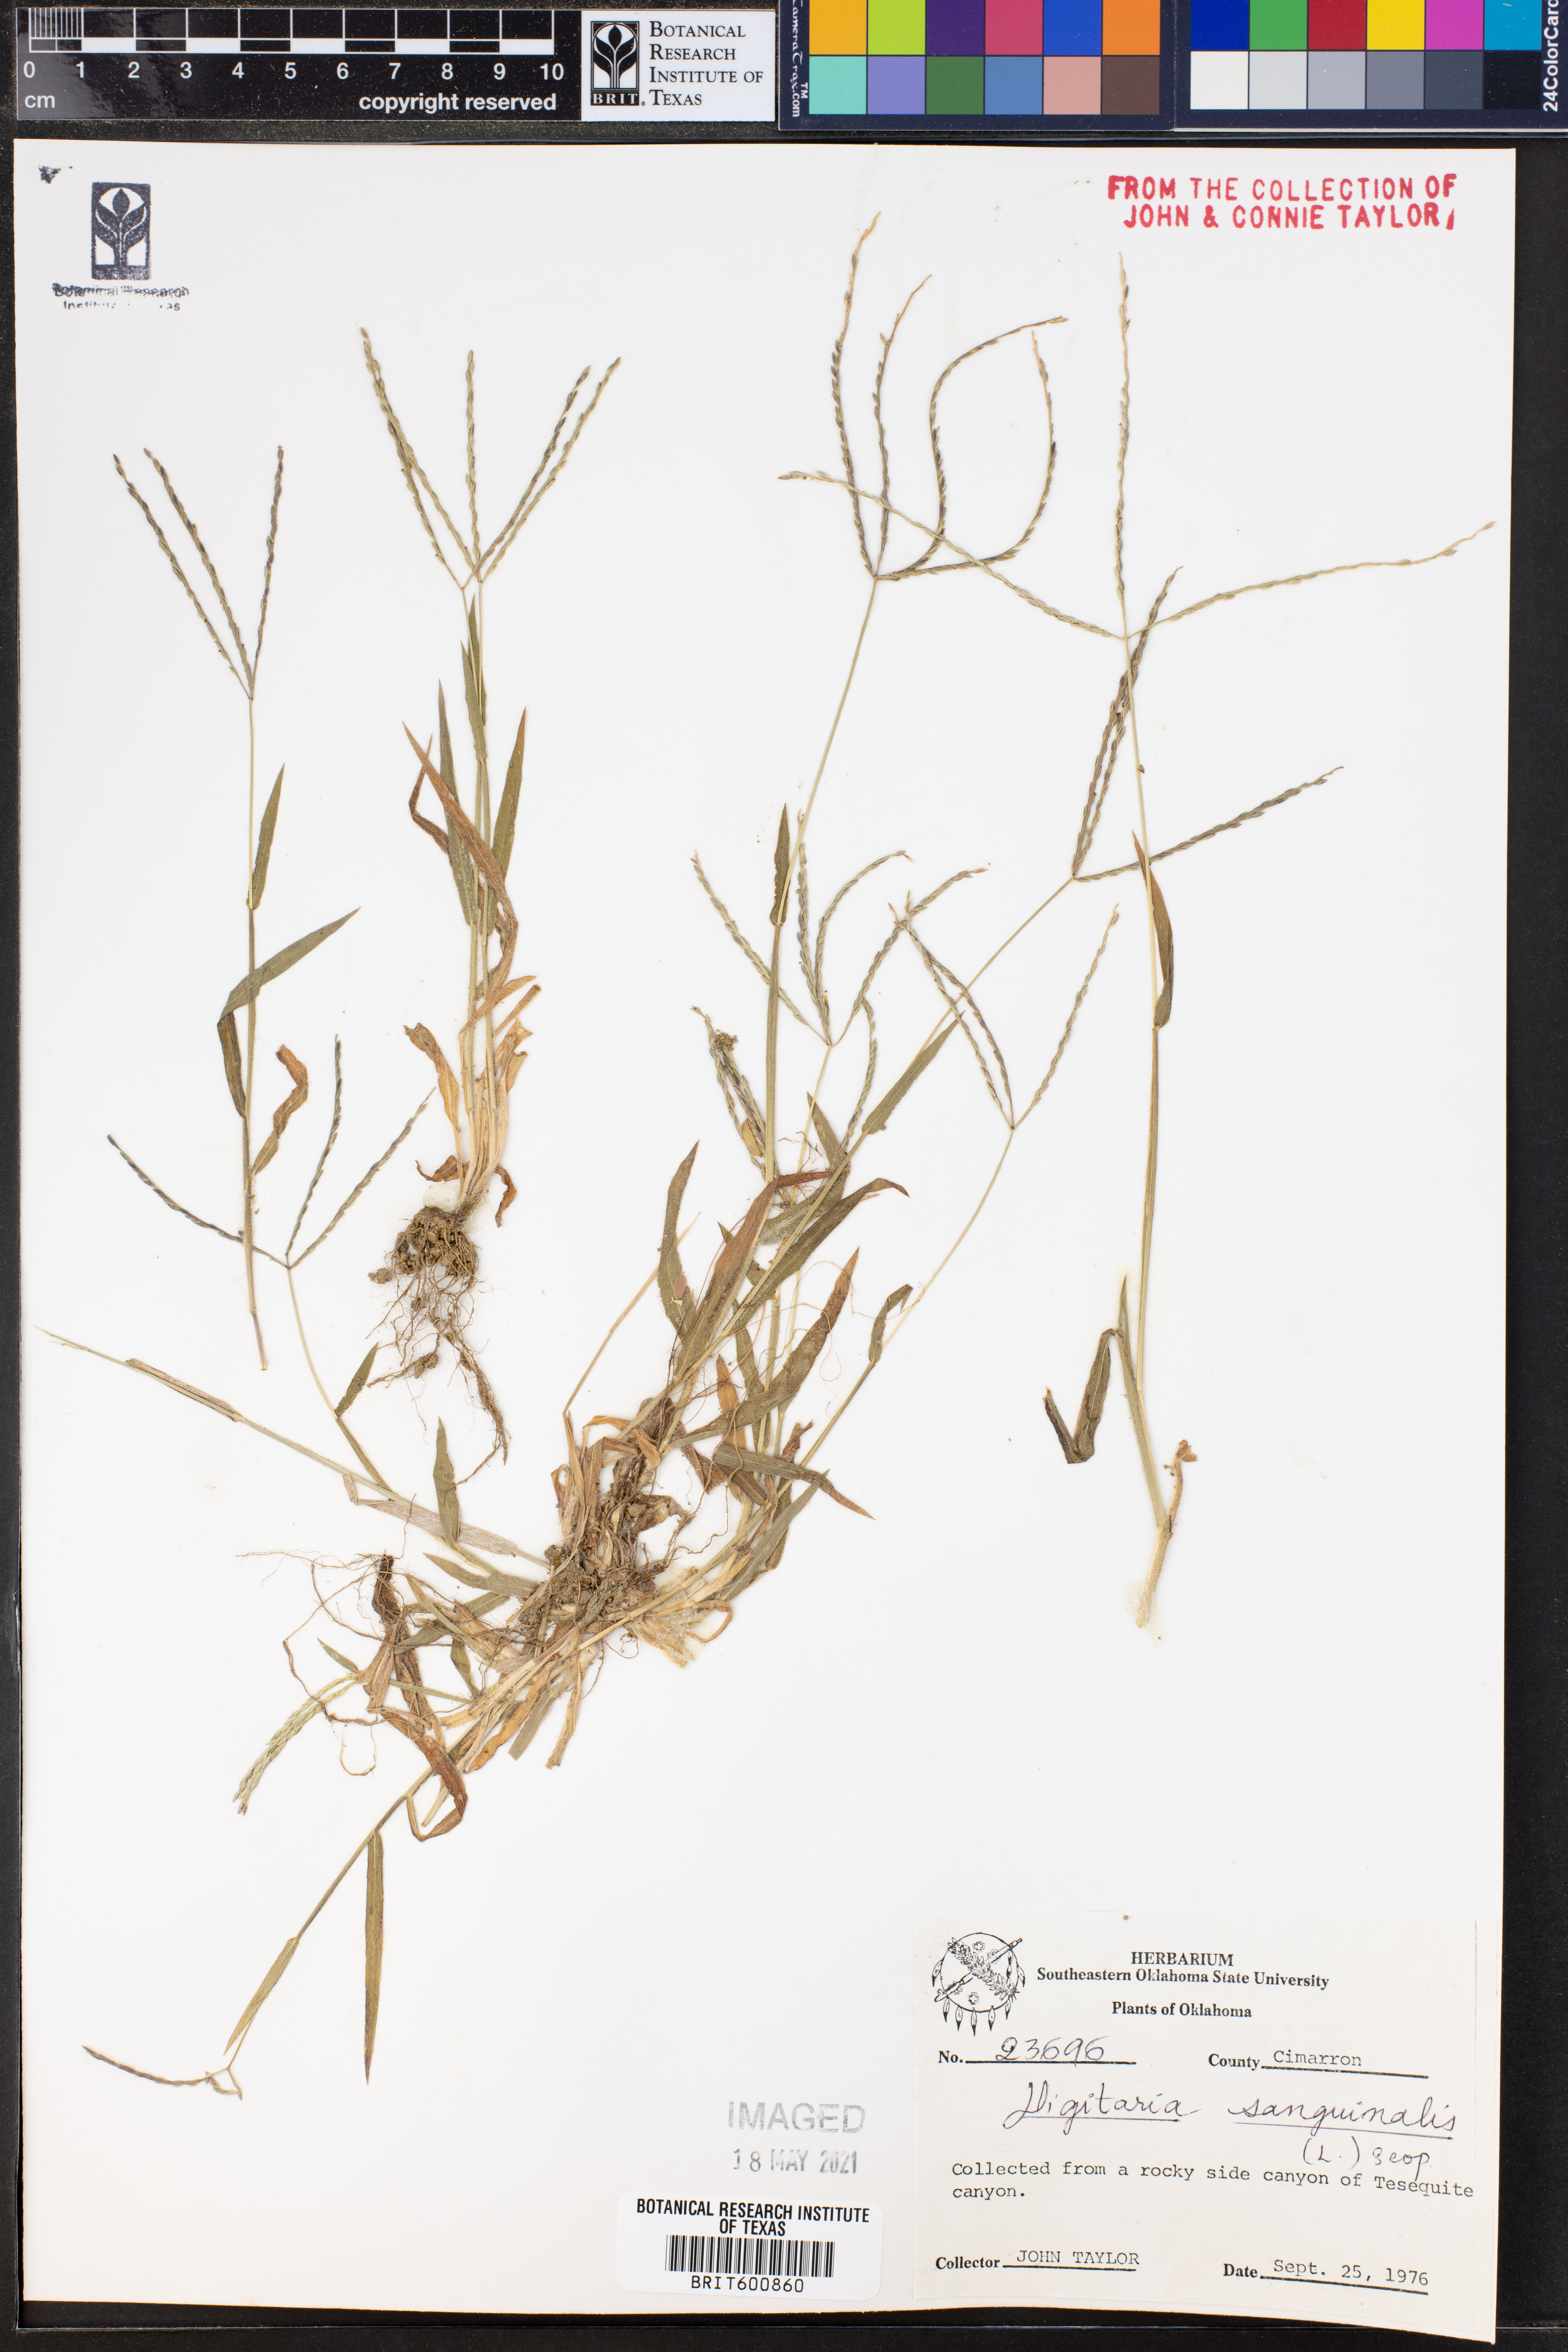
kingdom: Plantae
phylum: Tracheophyta
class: Liliopsida
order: Poales
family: Poaceae
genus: Digitaria
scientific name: Digitaria sanguinalis
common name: Hairy crabgrass
